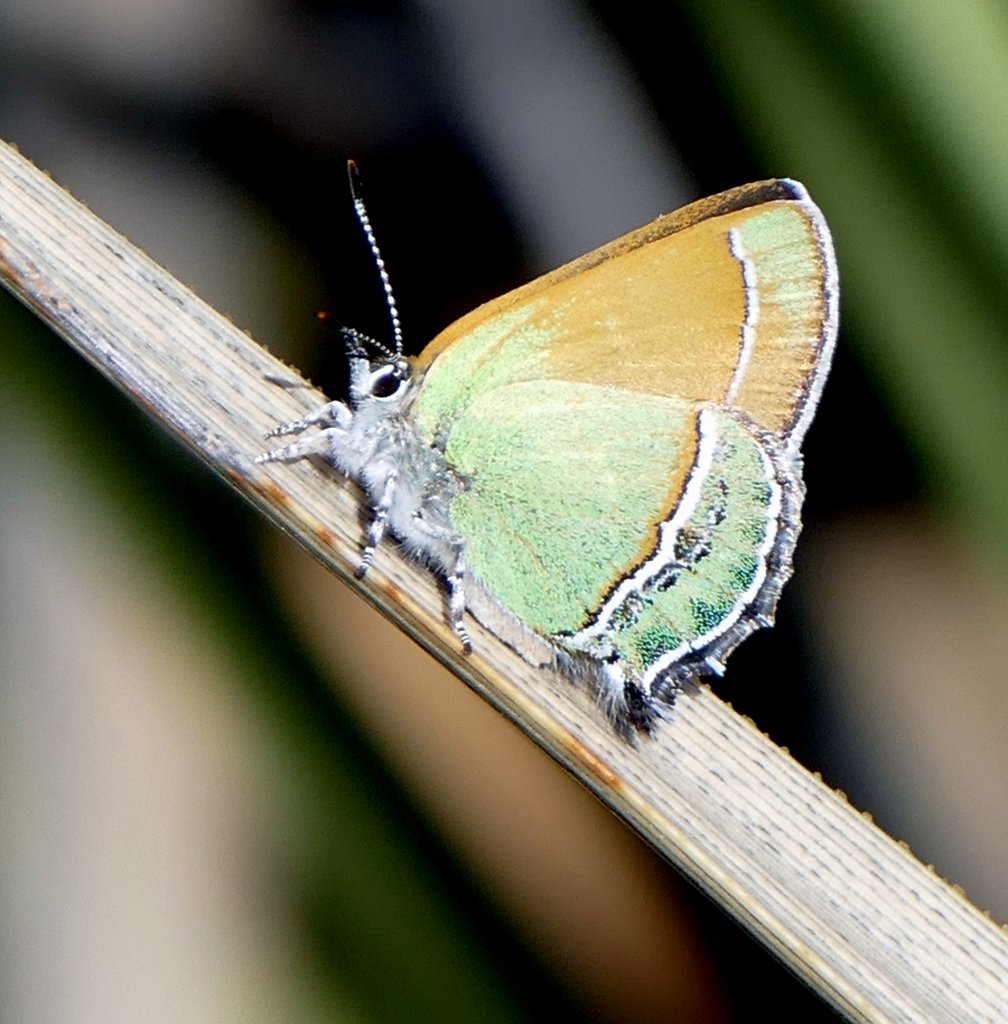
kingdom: Animalia
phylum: Arthropoda
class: Insecta
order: Lepidoptera
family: Lycaenidae
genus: Sandia
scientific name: Sandia mcfarlandi
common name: Sandia Hairstreak
